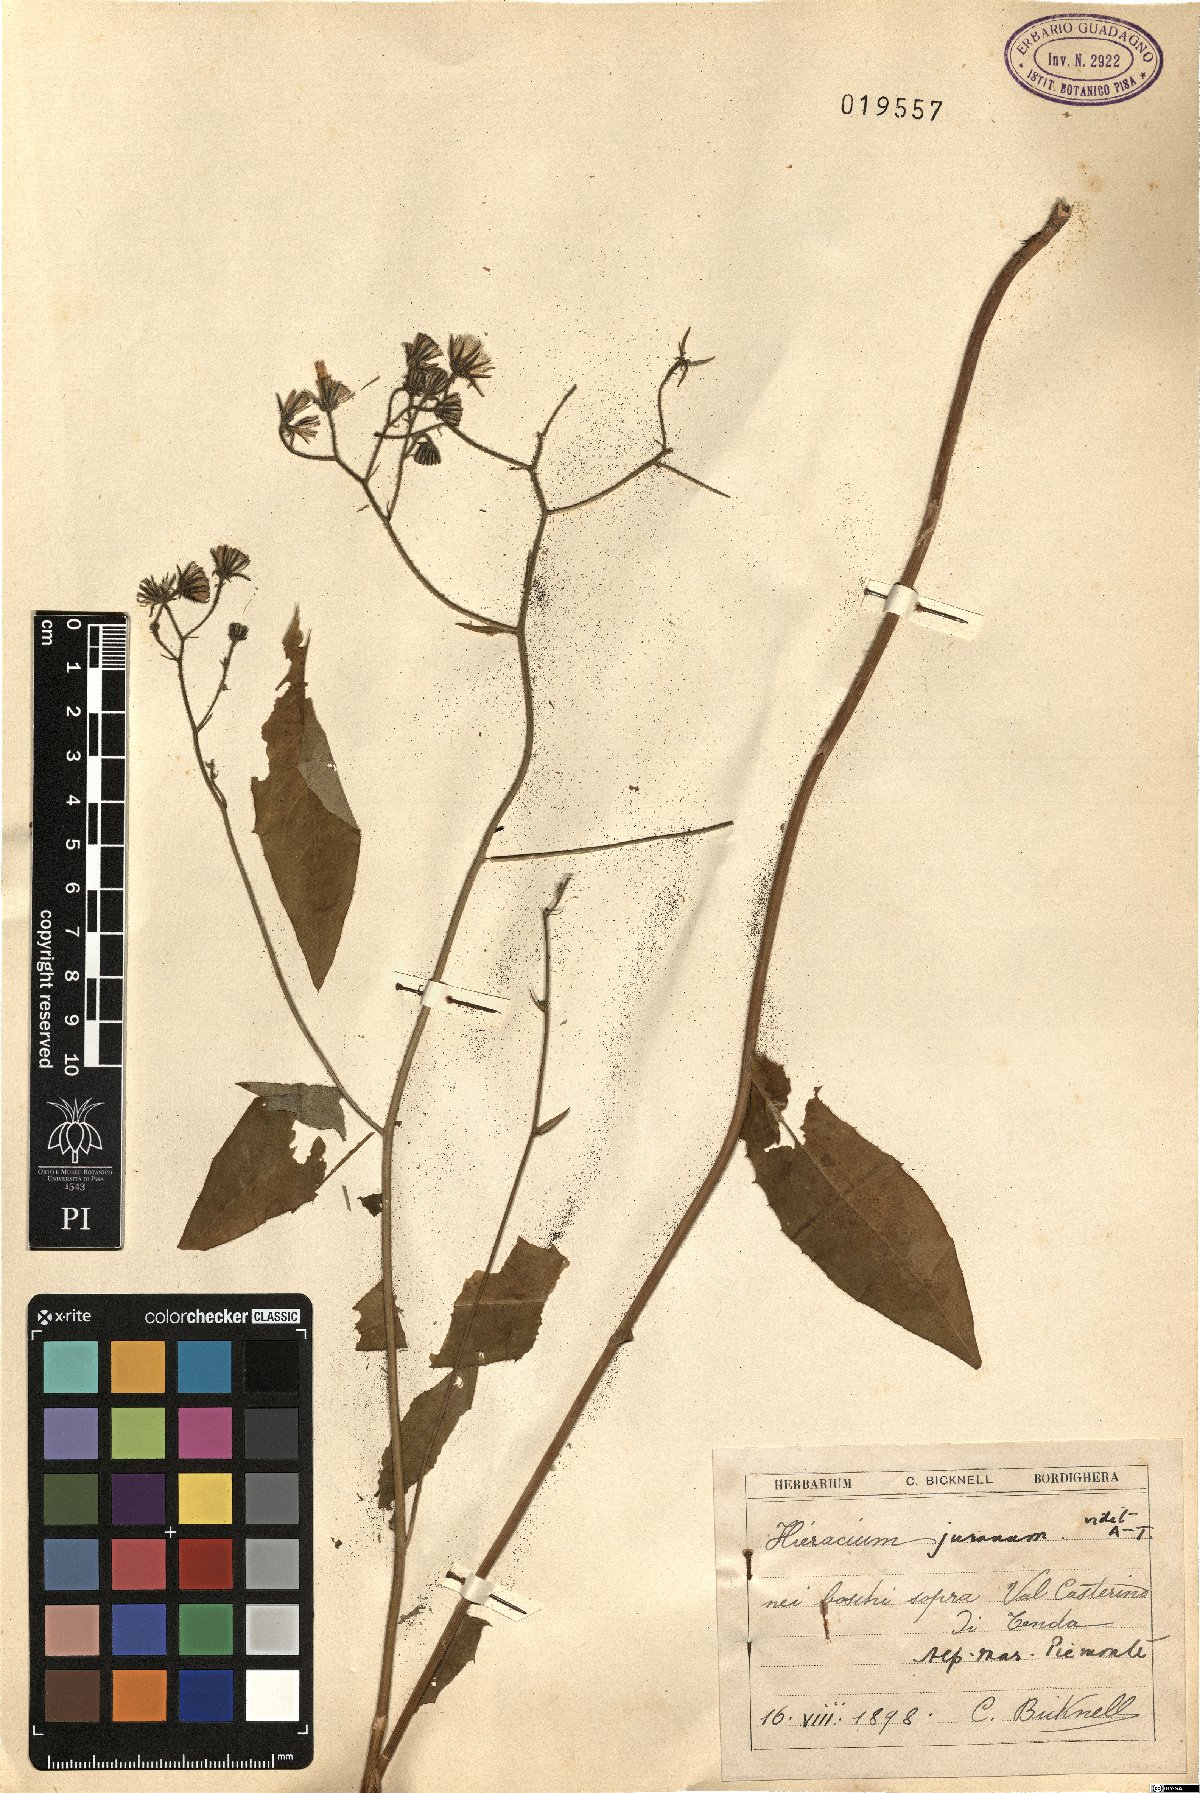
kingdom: Plantae
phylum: Tracheophyta
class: Magnoliopsida
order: Asterales
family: Asteraceae
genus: Hieracium
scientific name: Hieracium juranum
